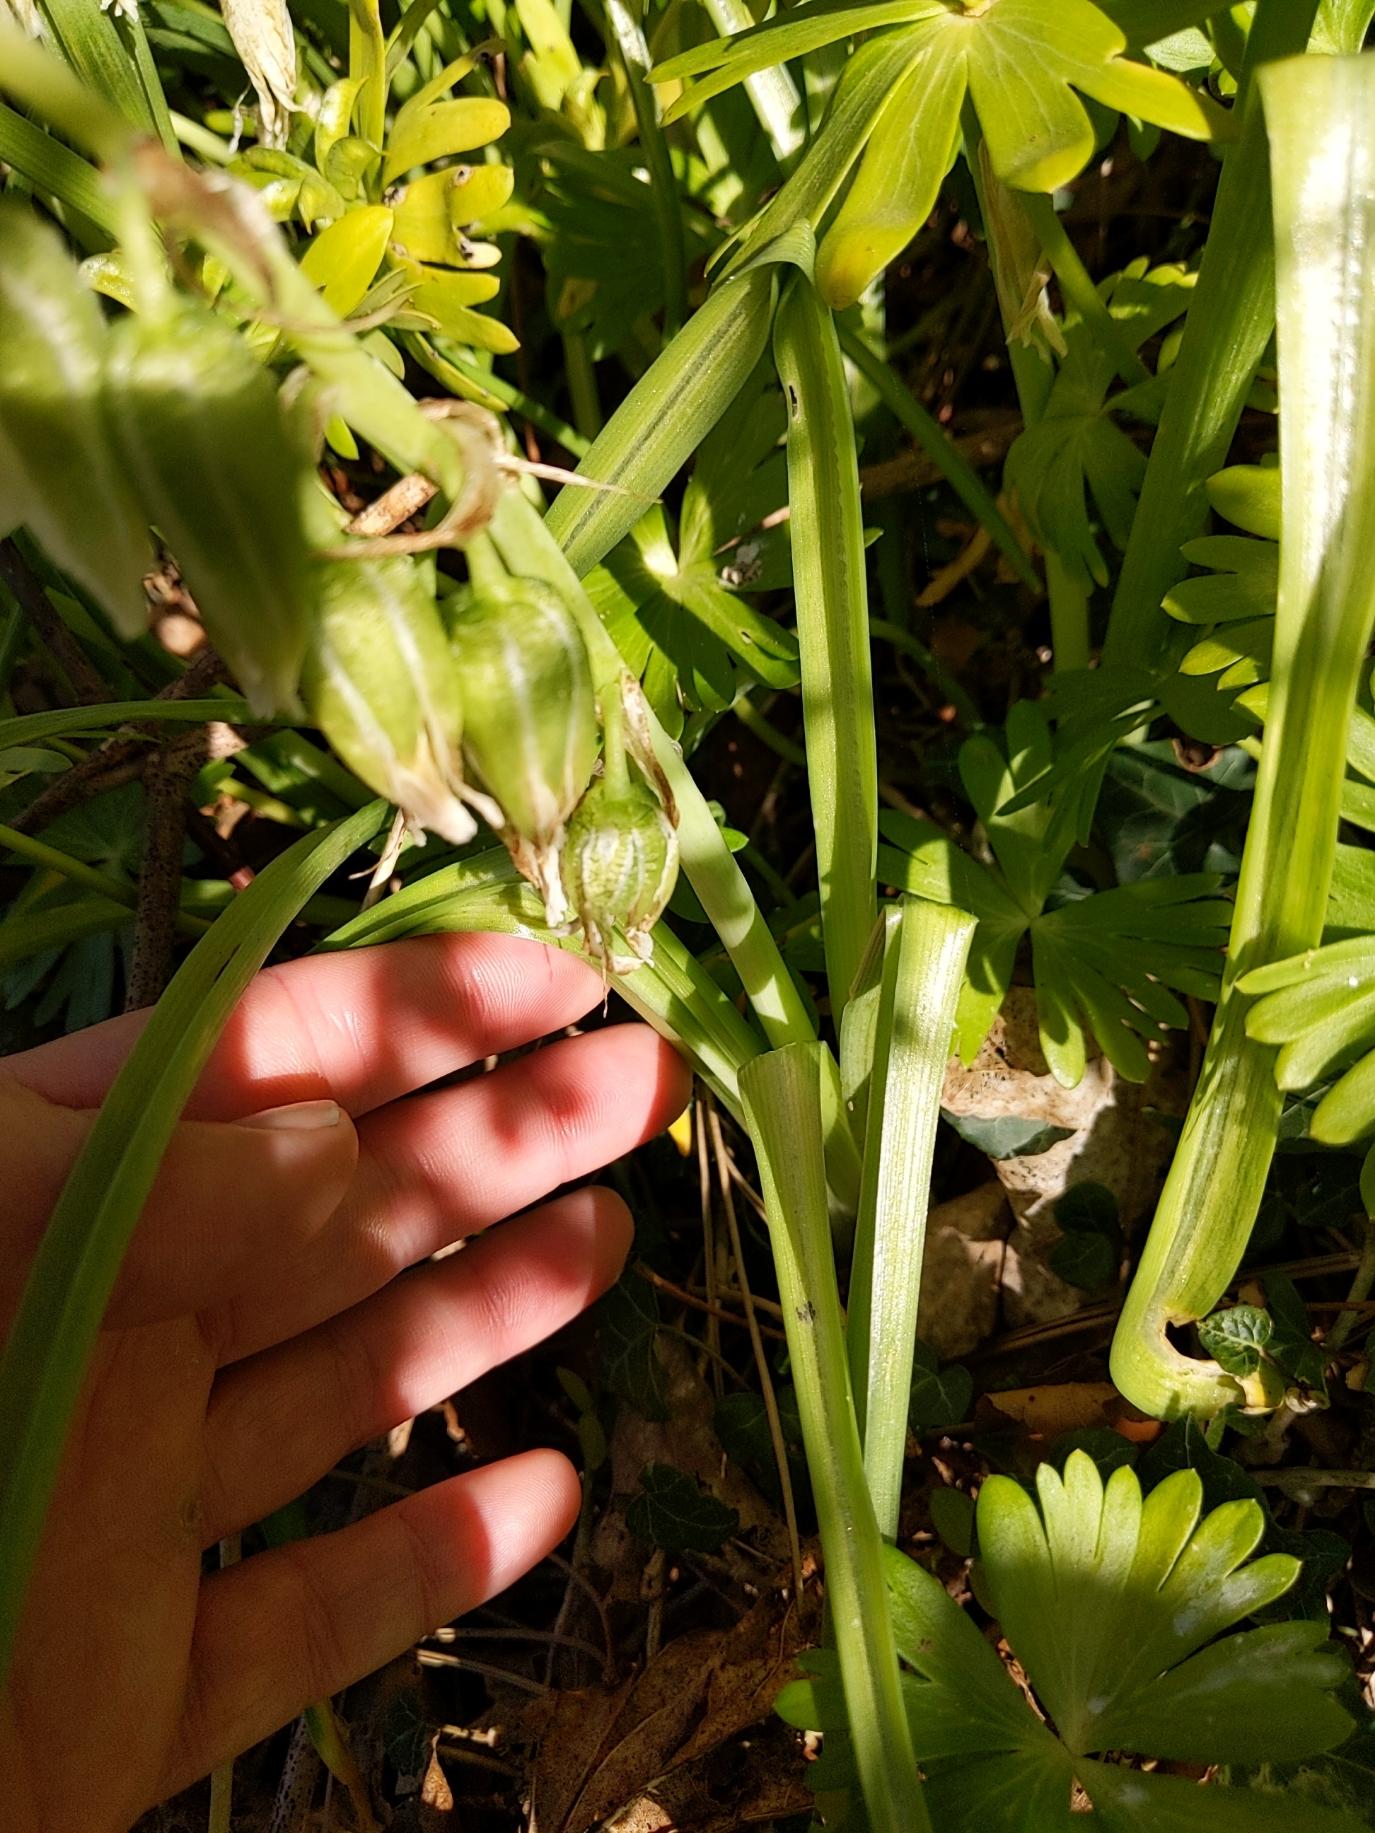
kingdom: Plantae
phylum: Tracheophyta
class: Liliopsida
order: Asparagales
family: Asparagaceae
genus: Ornithogalum
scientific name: Ornithogalum nutans
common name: Nikkende fuglemælk
